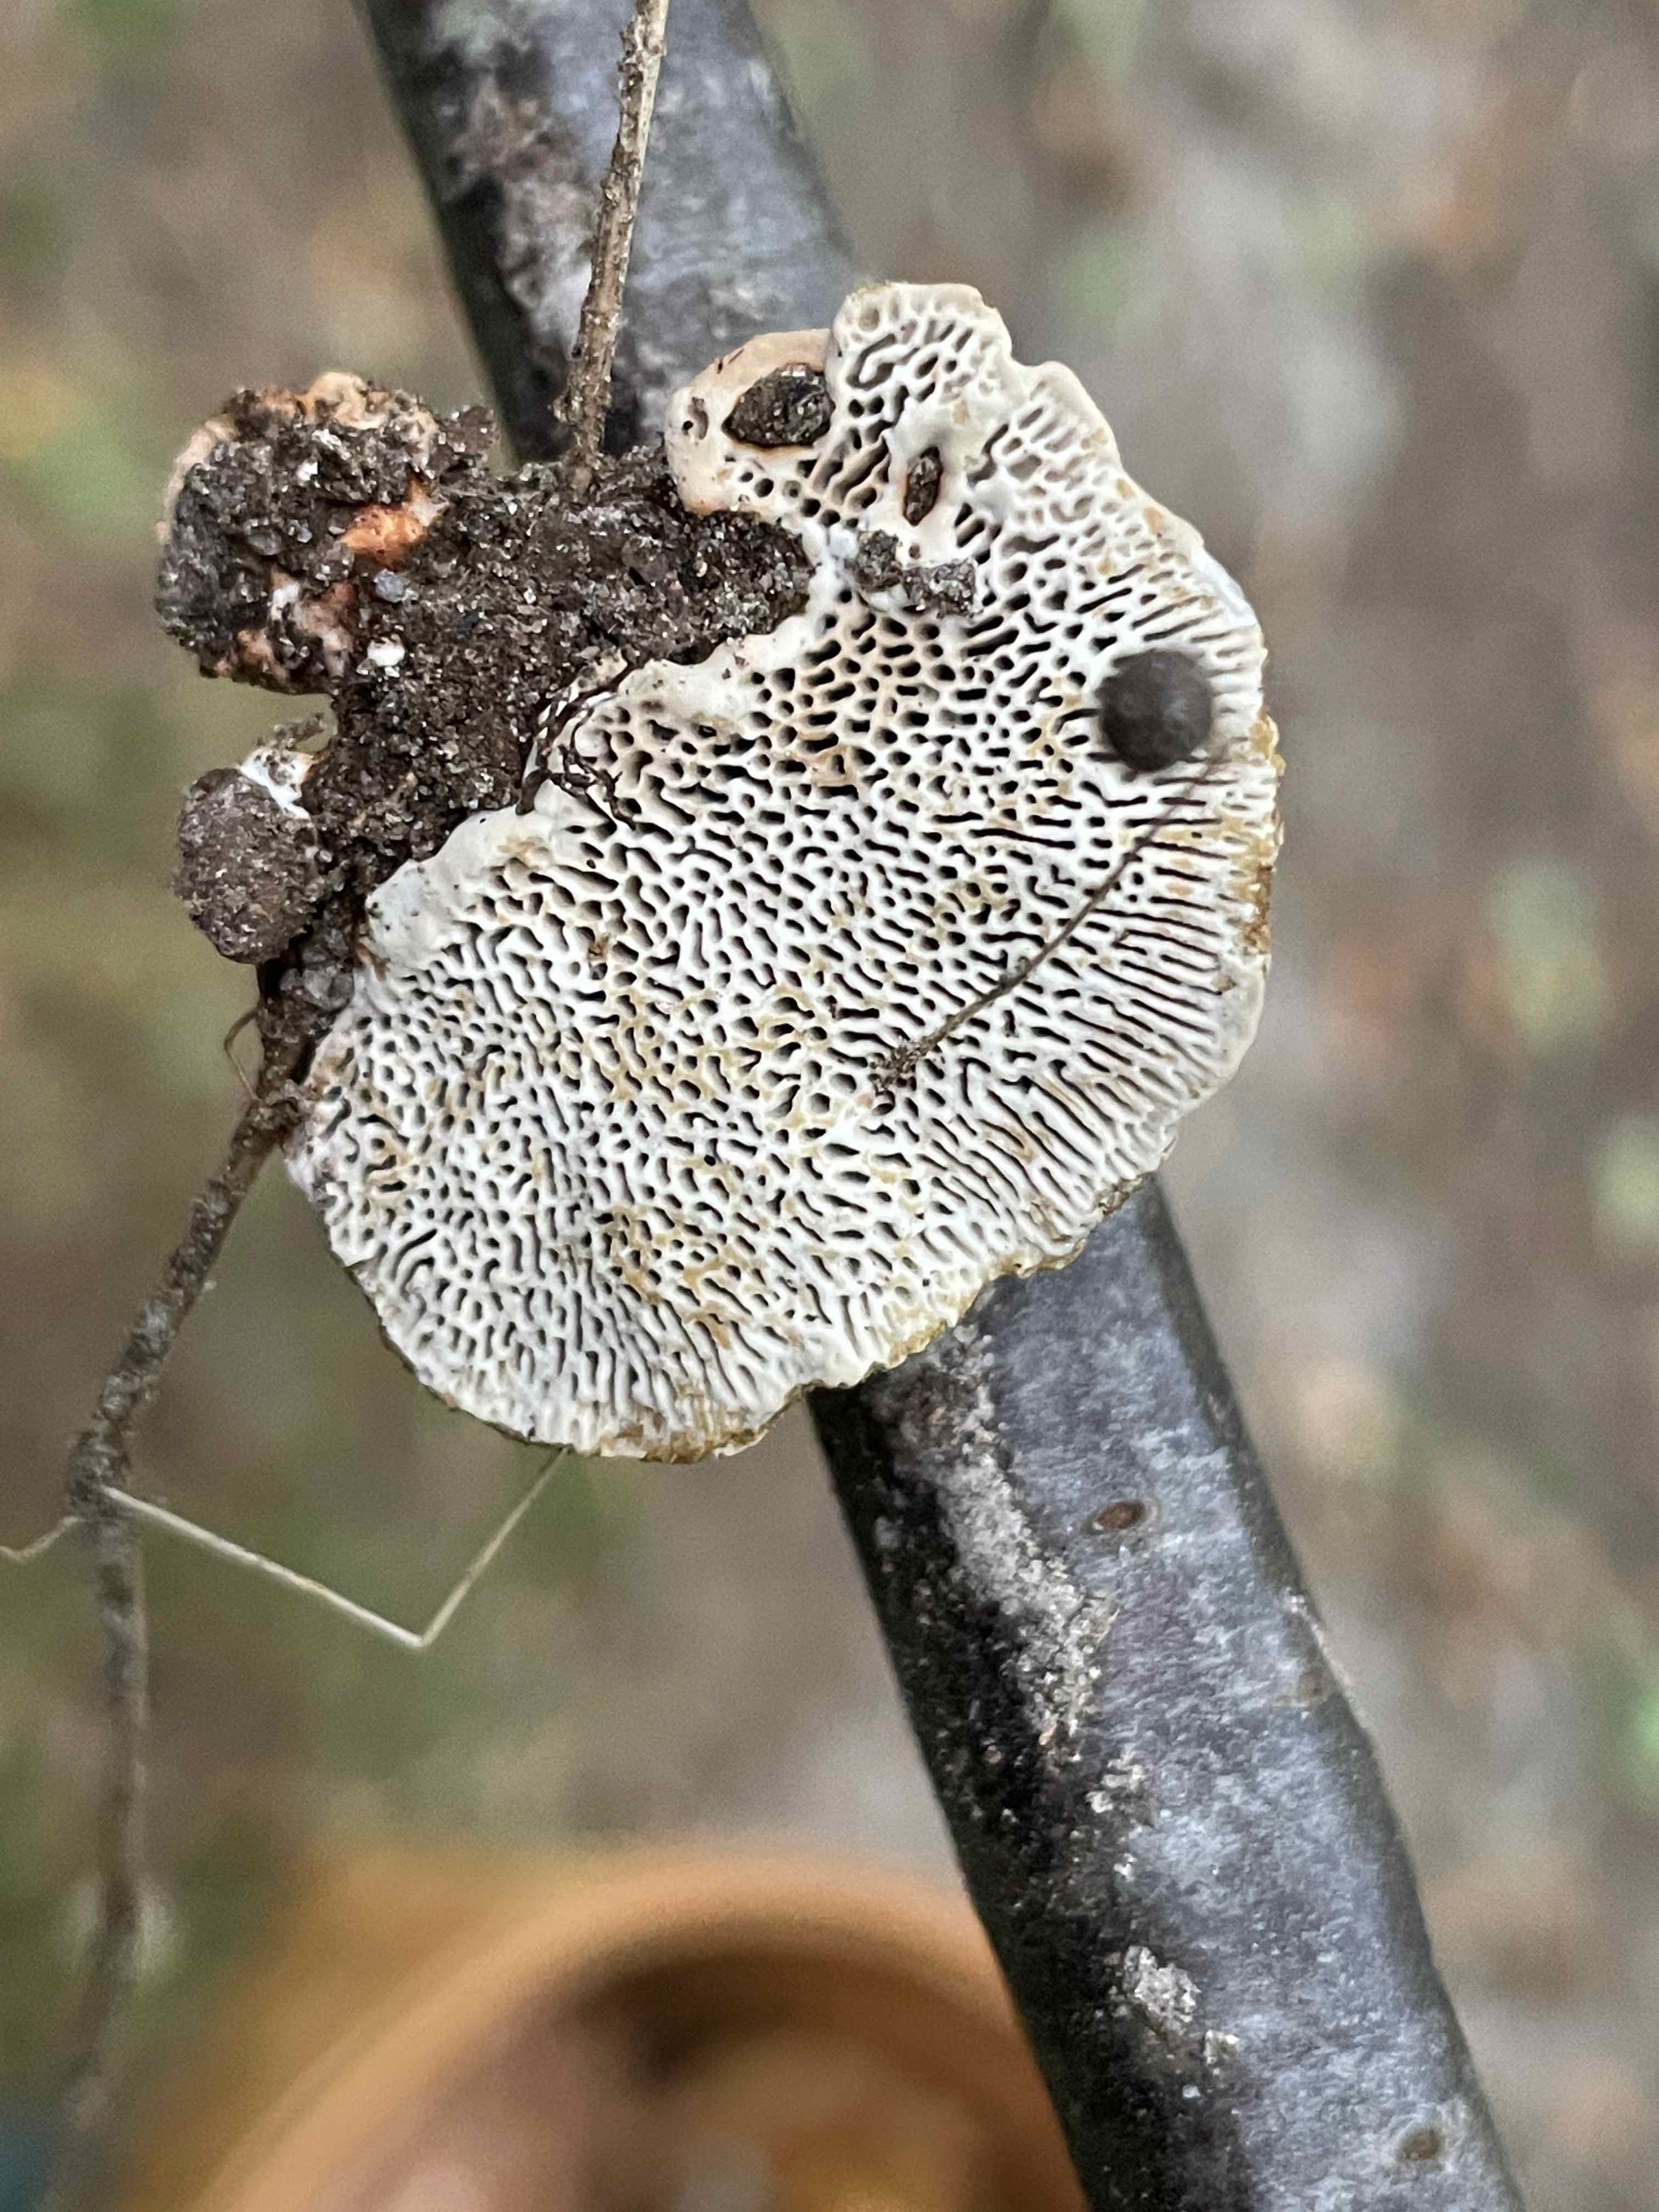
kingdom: Fungi
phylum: Basidiomycota
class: Agaricomycetes
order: Polyporales
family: Polyporaceae
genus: Daedaleopsis
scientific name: Daedaleopsis confragosa
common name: rødmende læderporesvamp
